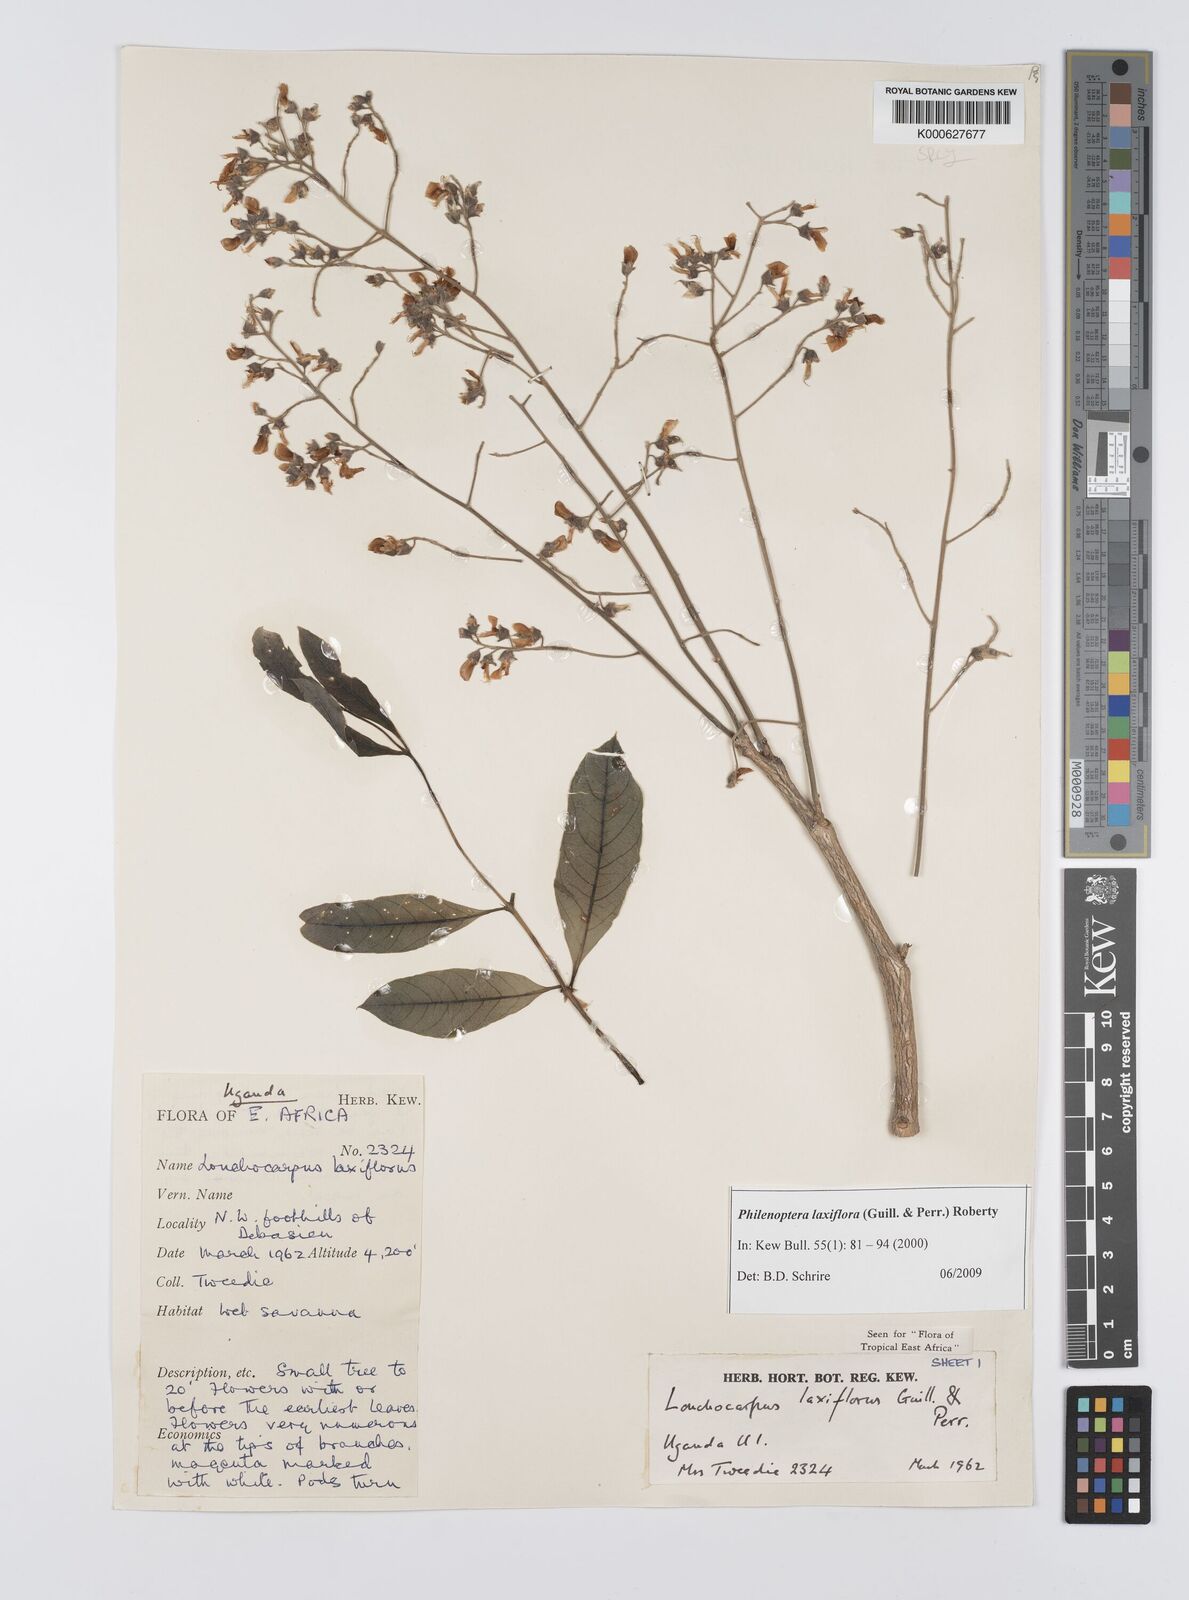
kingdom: Plantae
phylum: Tracheophyta
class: Magnoliopsida
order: Fabales
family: Fabaceae
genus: Philenoptera
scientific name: Philenoptera laxiflora
